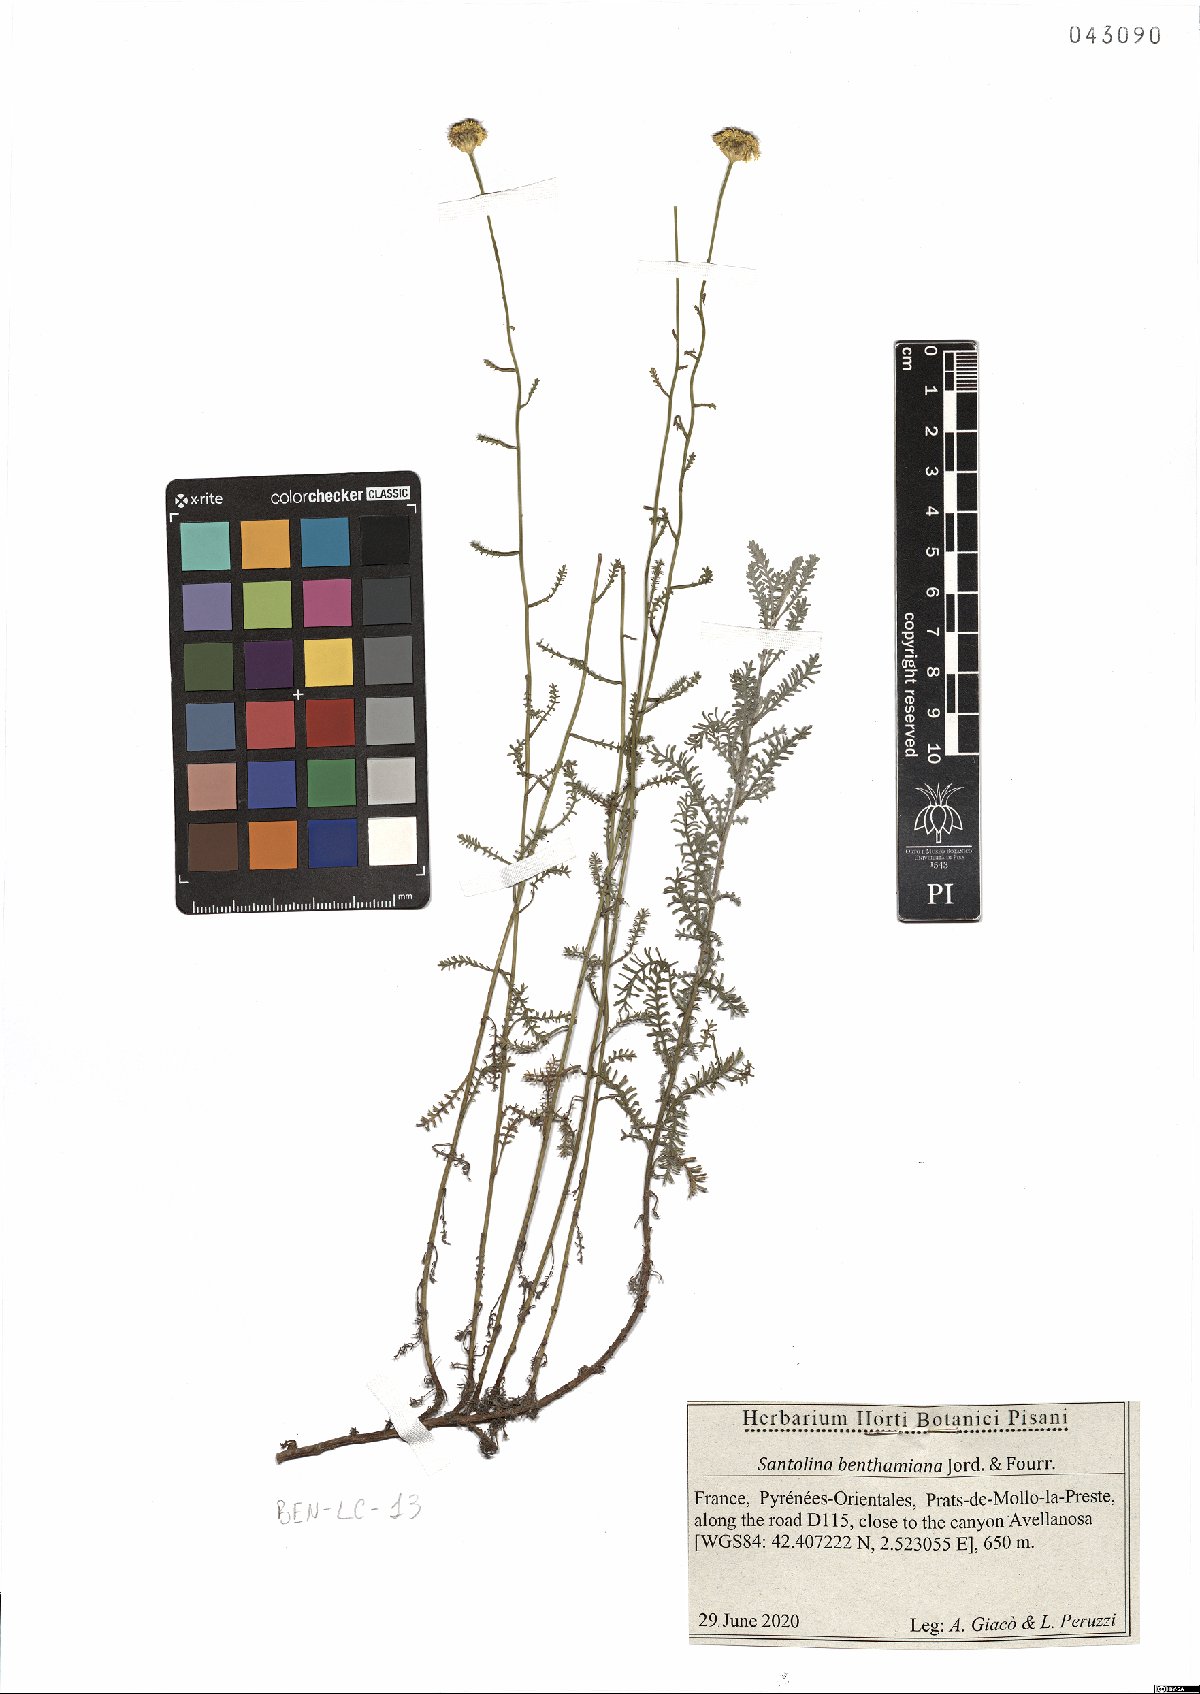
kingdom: Plantae
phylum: Tracheophyta
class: Magnoliopsida
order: Asterales
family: Asteraceae
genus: Santolina
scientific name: Santolina benthamiana
